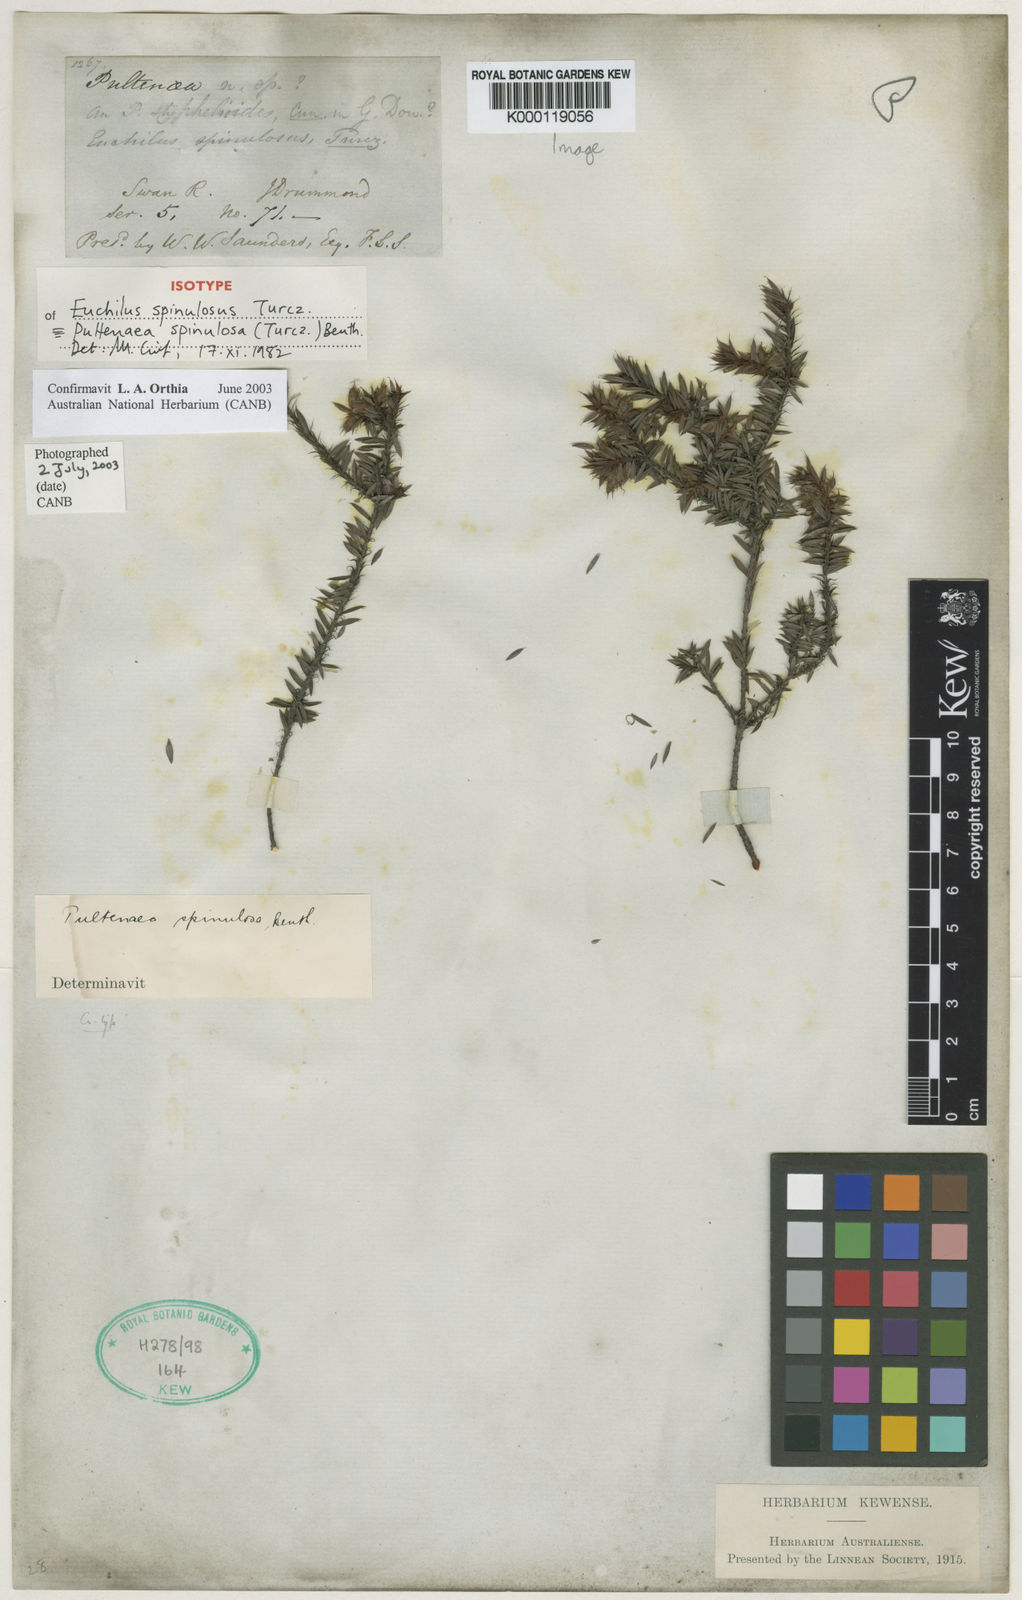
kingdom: Plantae
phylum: Tracheophyta
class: Magnoliopsida
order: Fabales
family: Fabaceae
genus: Pultenaea
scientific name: Pultenaea spinulosa
